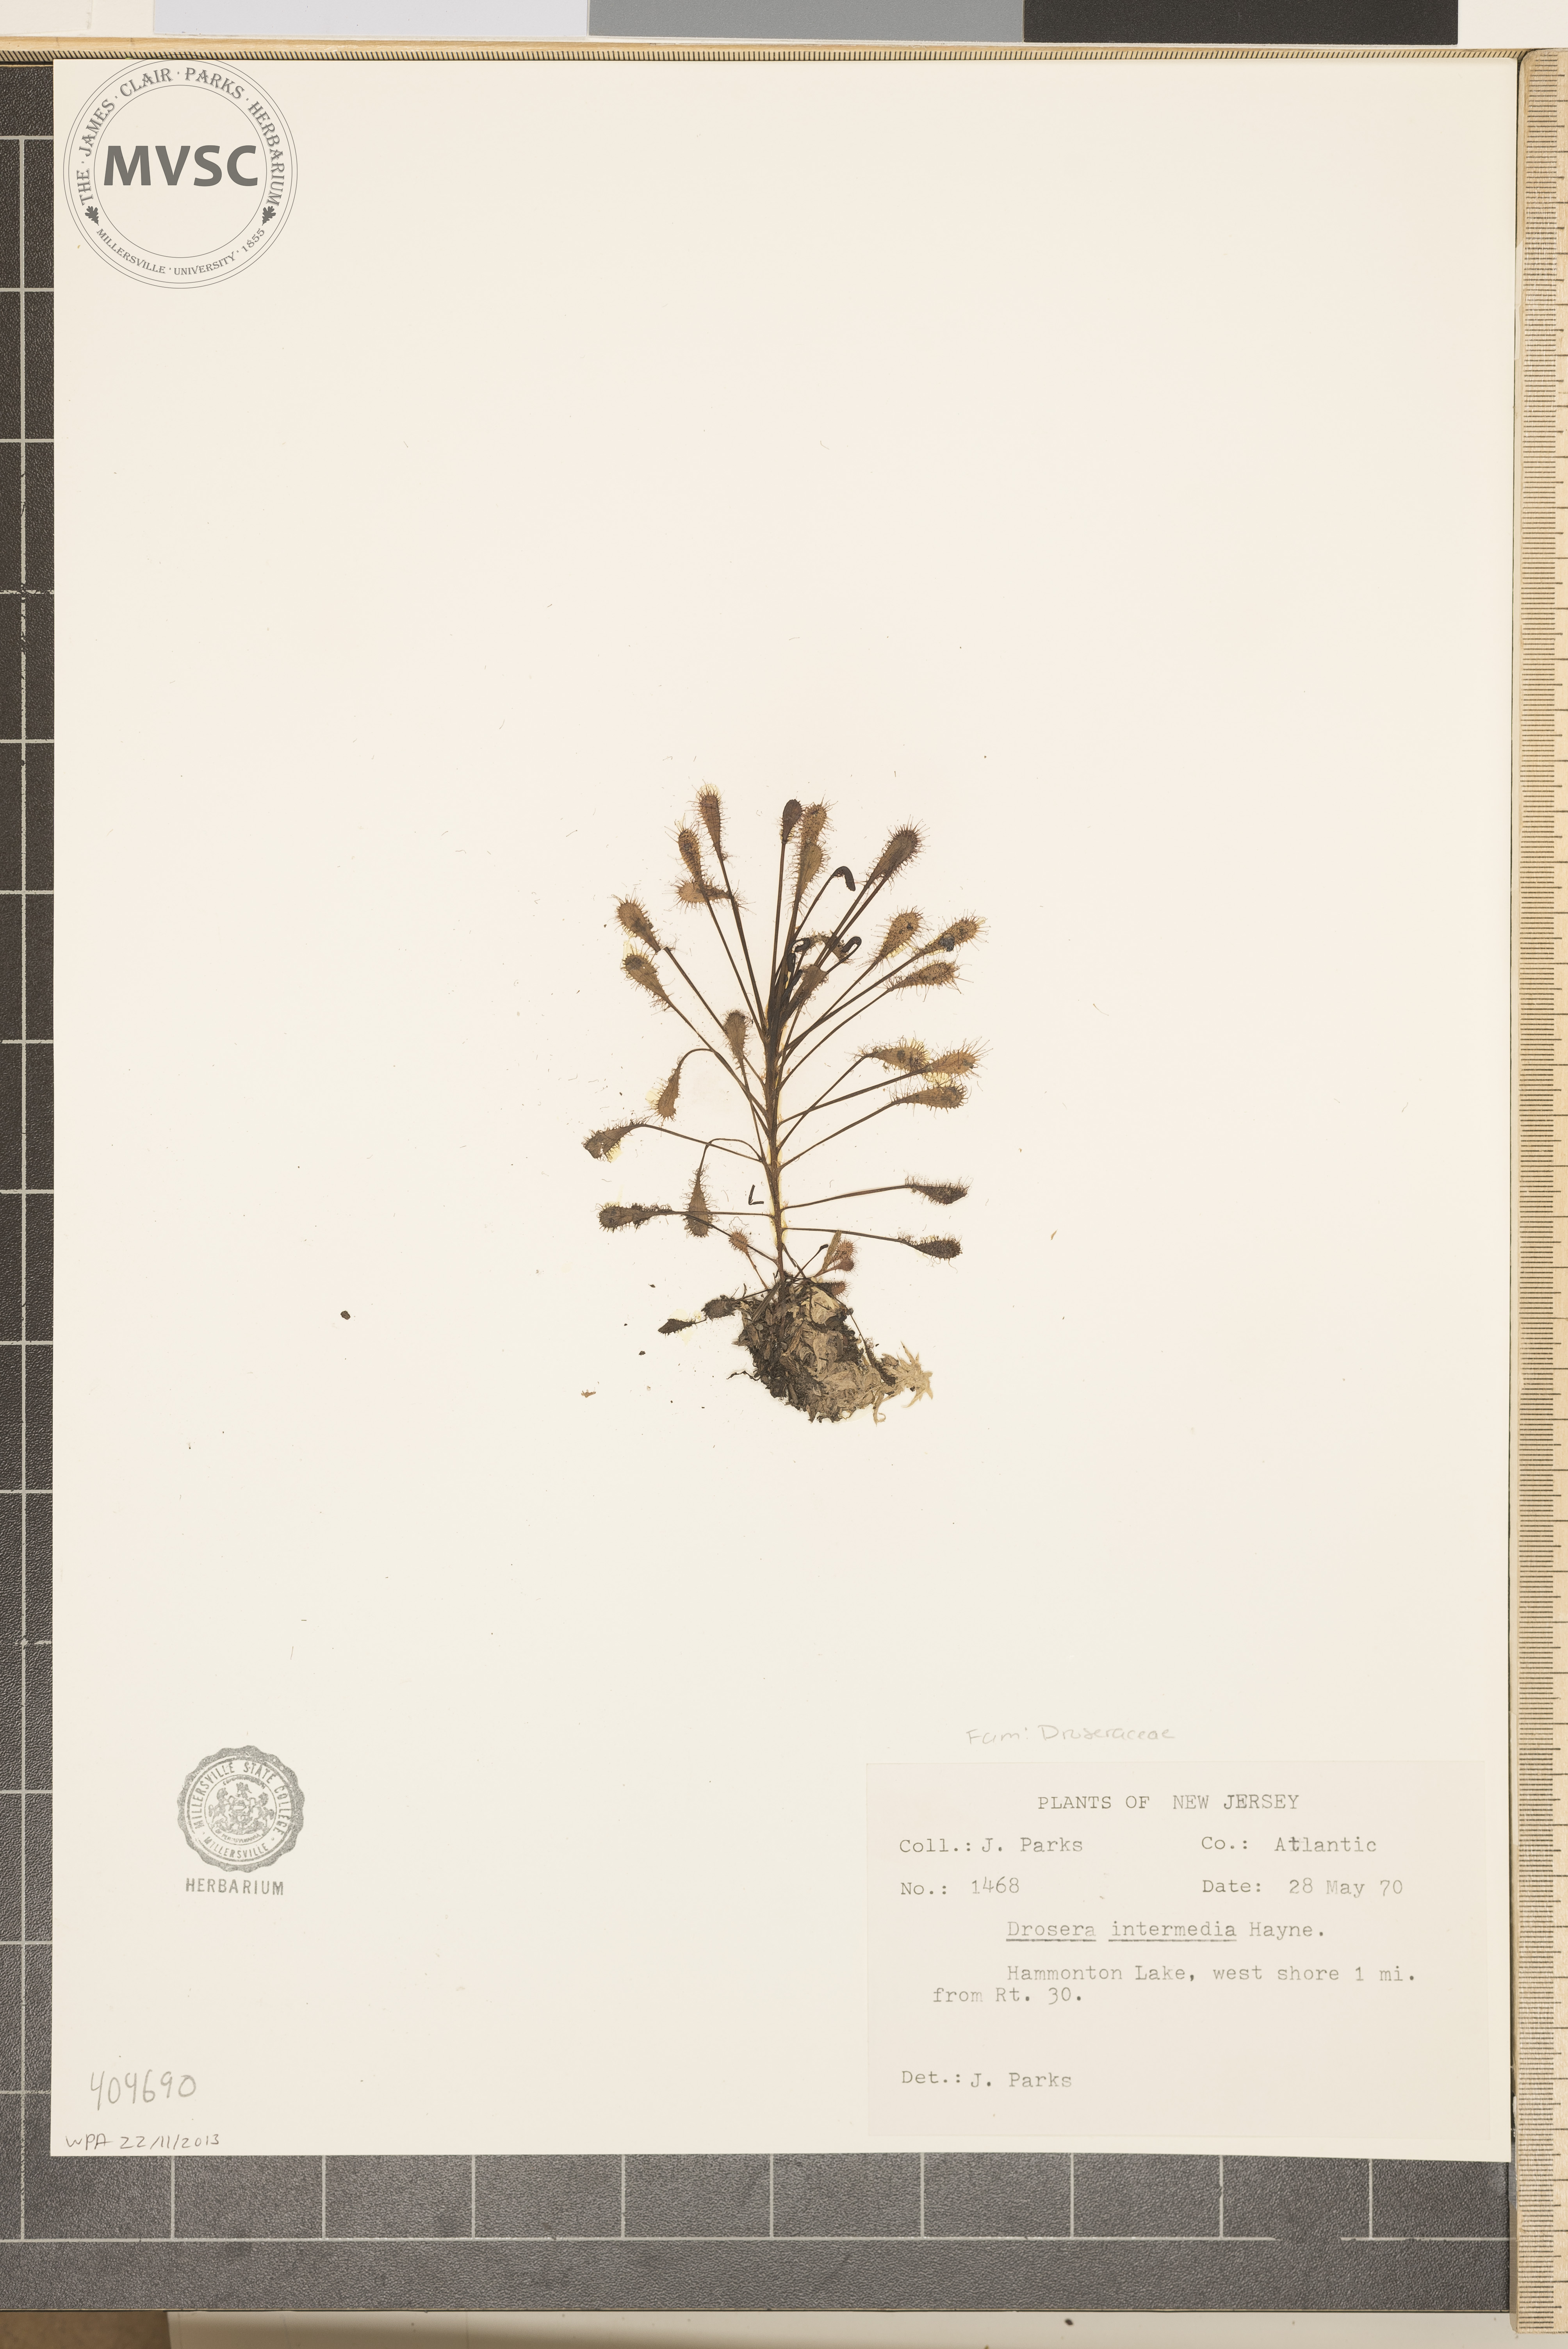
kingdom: Plantae
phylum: Tracheophyta
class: Magnoliopsida
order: Caryophyllales
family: Droseraceae
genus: Drosera
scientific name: Drosera intermedia
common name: Oblong-leaved sundew
